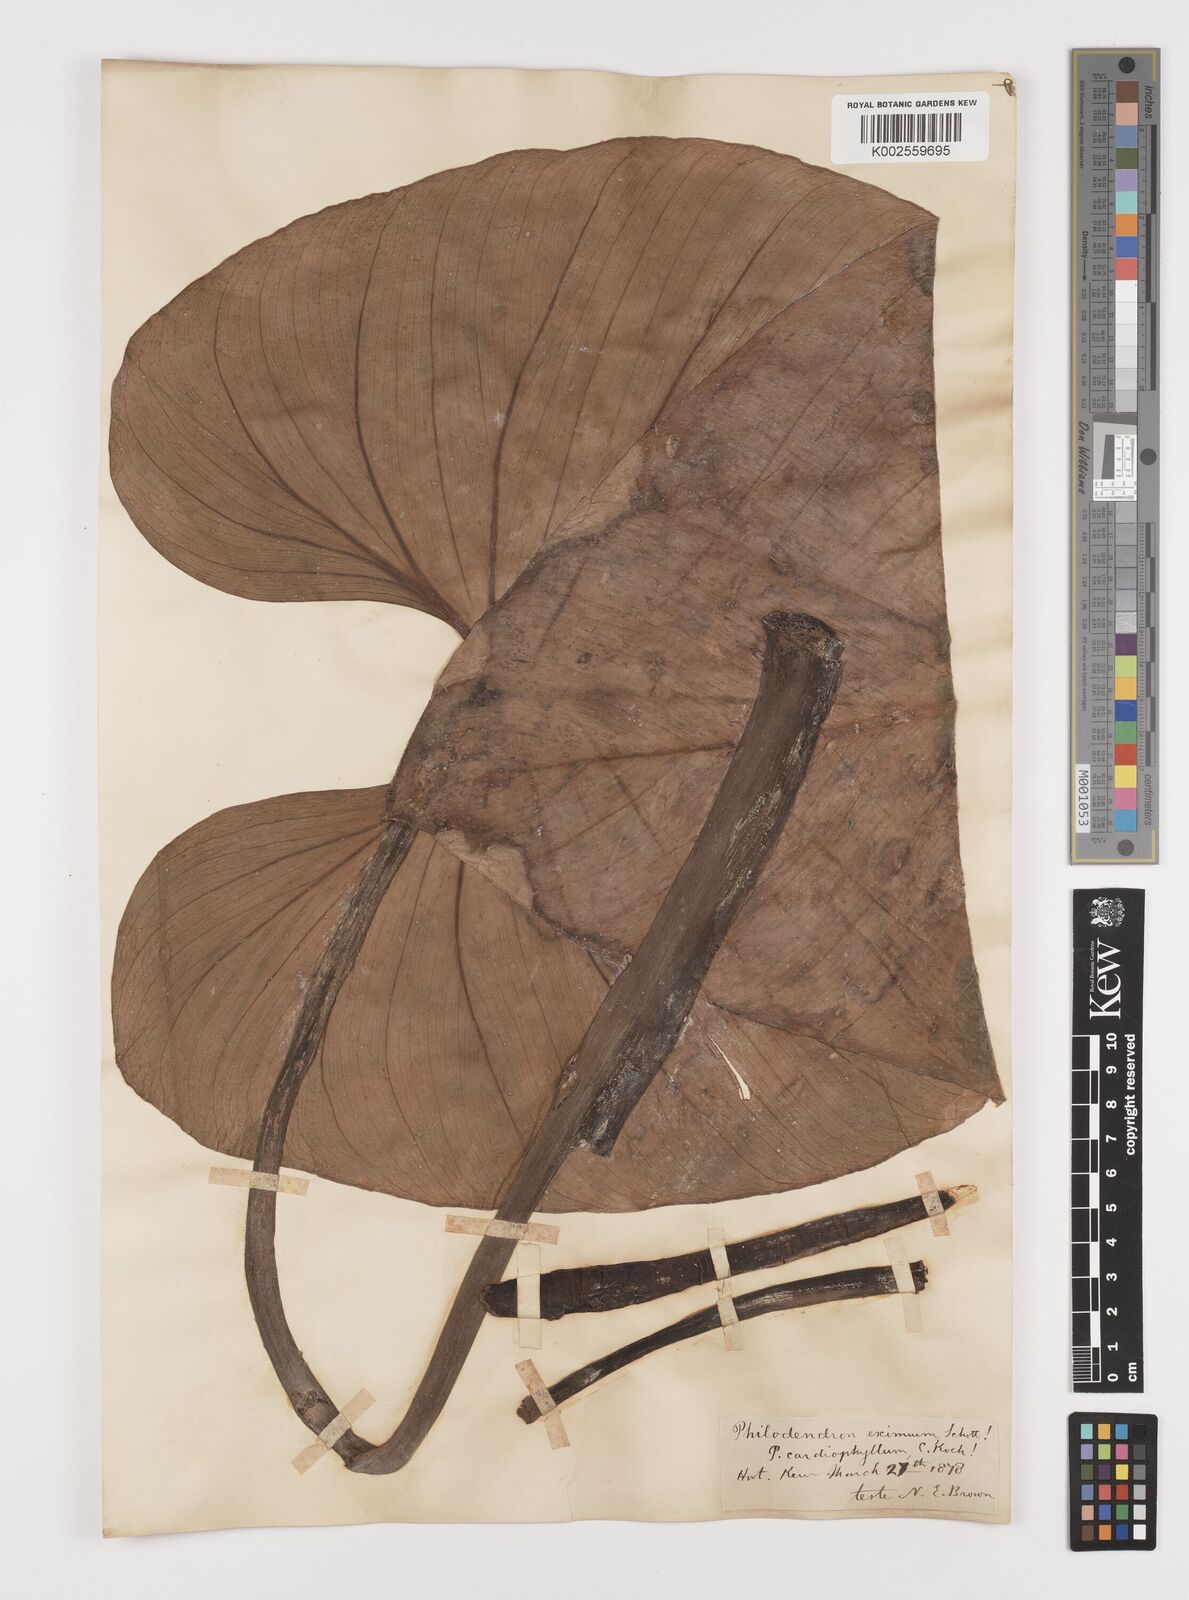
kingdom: Plantae
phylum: Tracheophyta
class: Liliopsida
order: Alismatales
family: Araceae
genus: Philodendron
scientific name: Philodendron eximium
